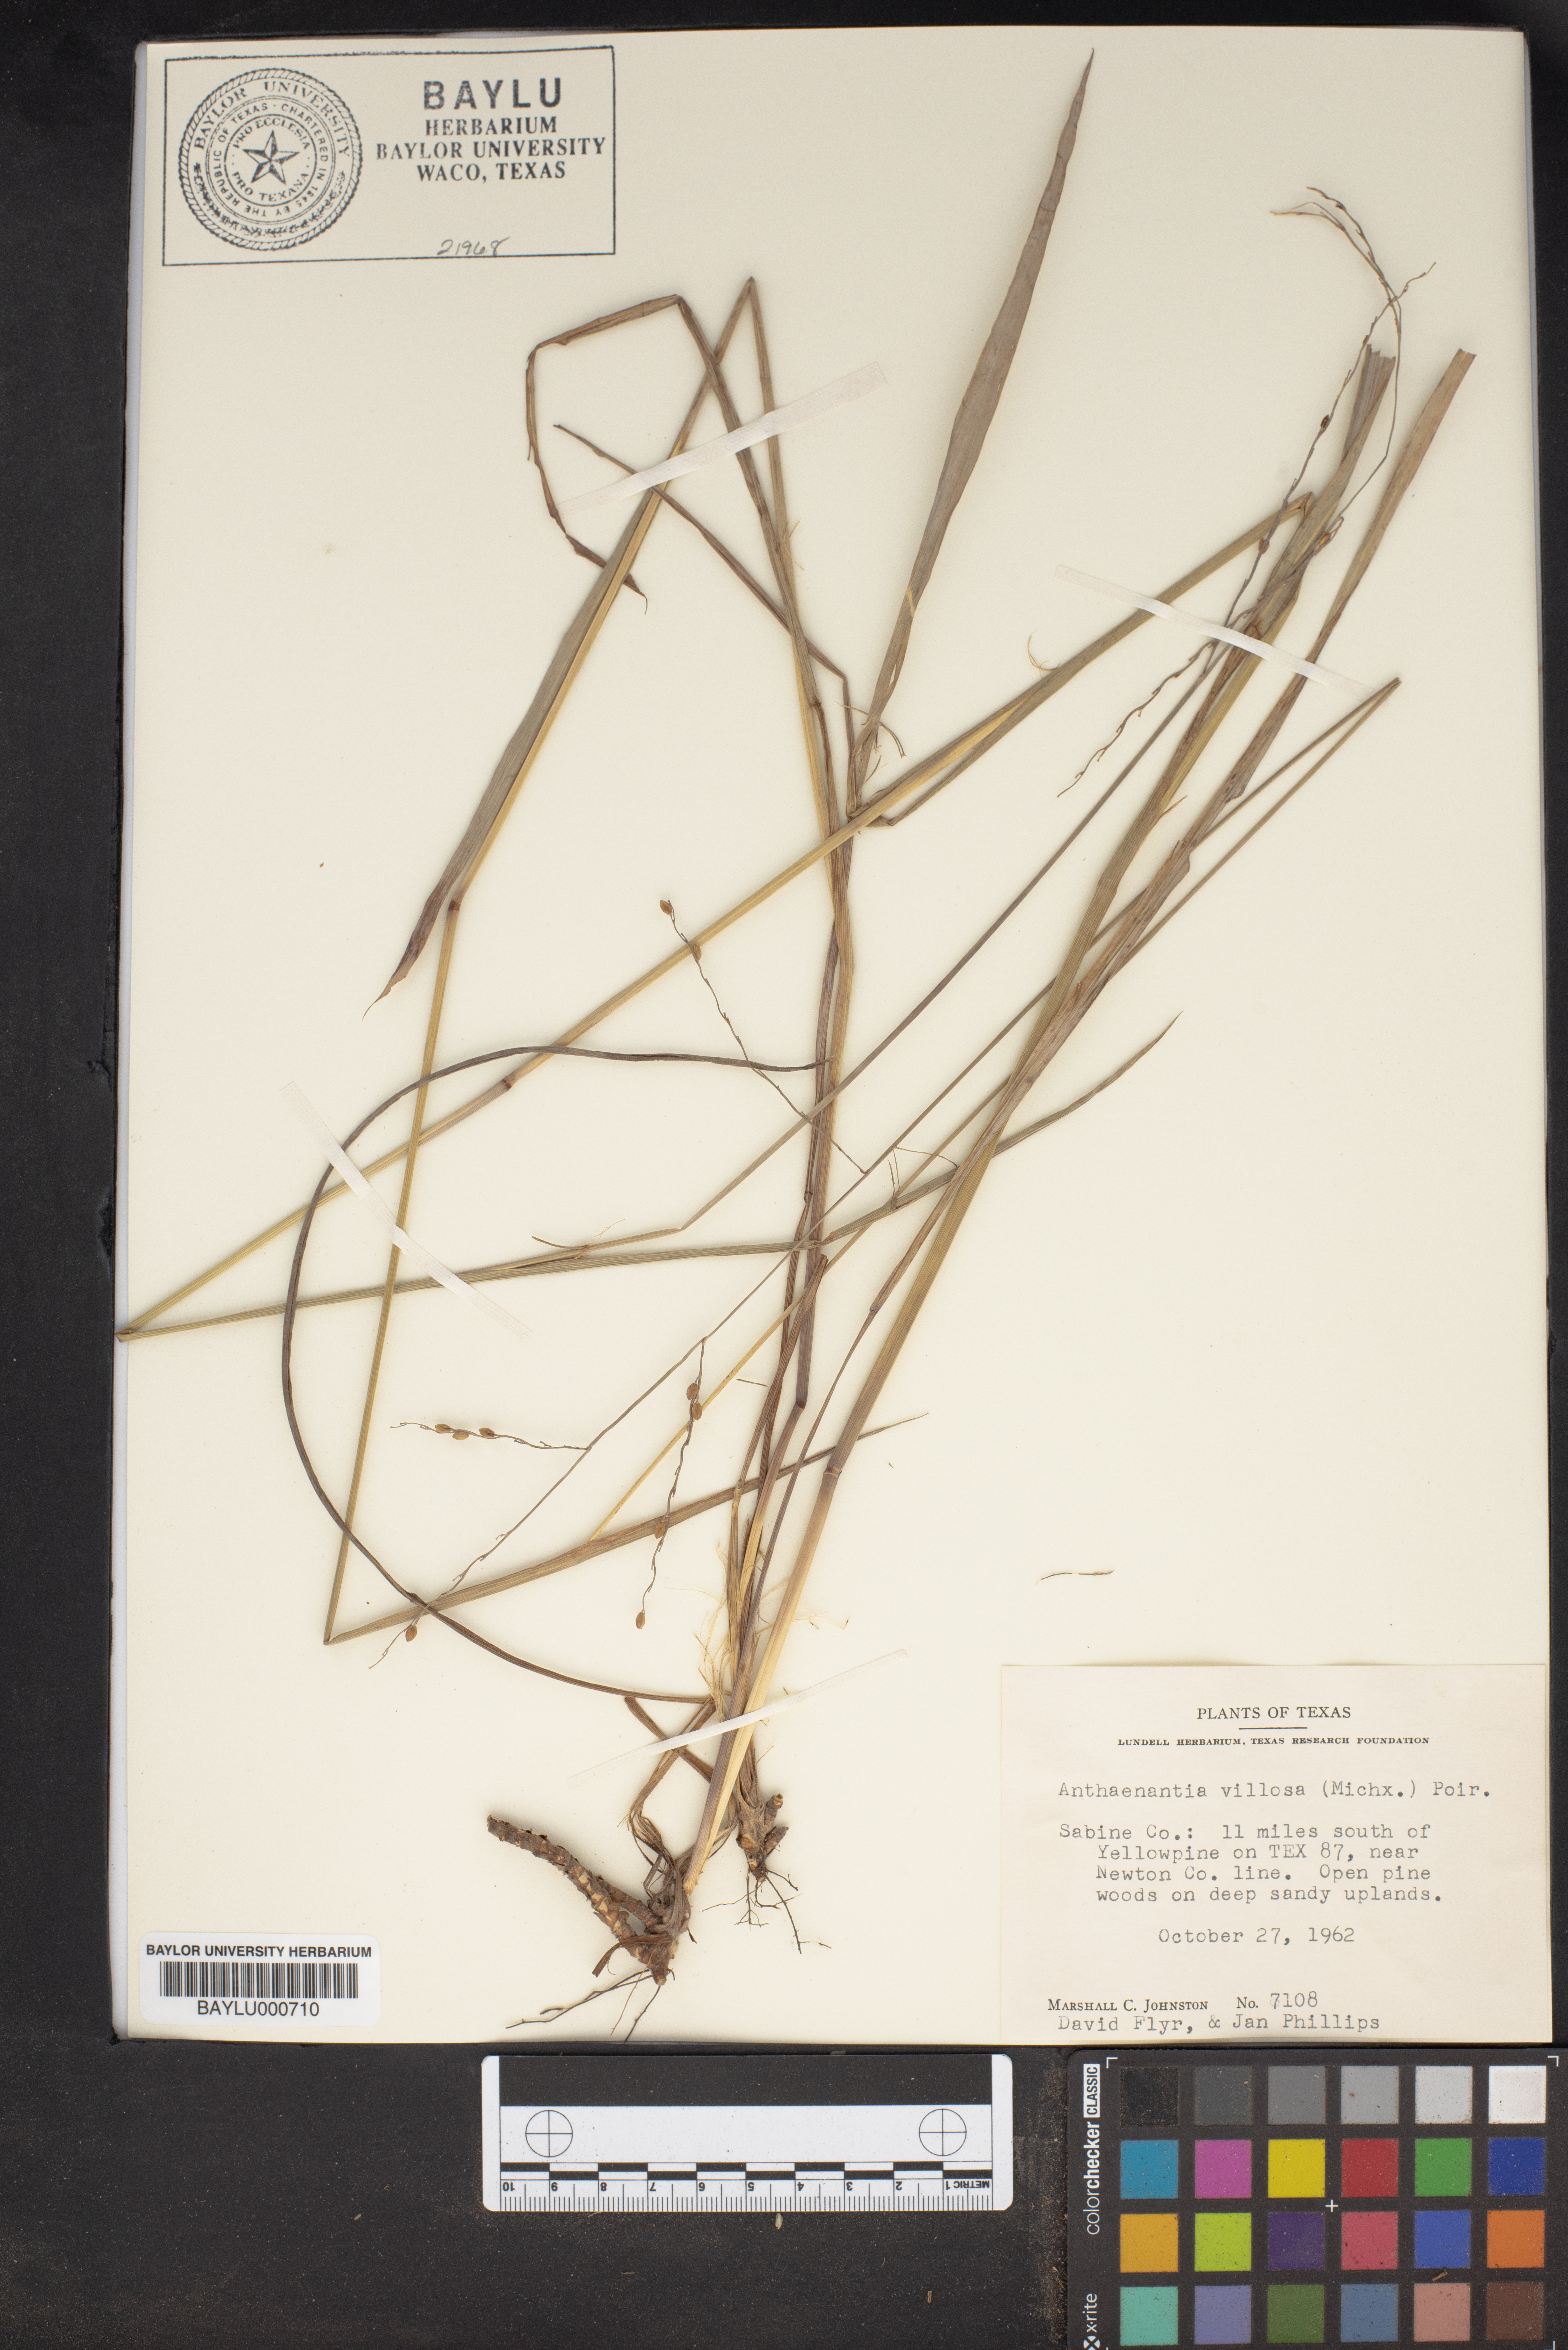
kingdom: Plantae
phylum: Tracheophyta
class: Liliopsida
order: Poales
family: Poaceae
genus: Anthenantia
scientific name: Anthenantia villosa
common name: Green silkyscale
